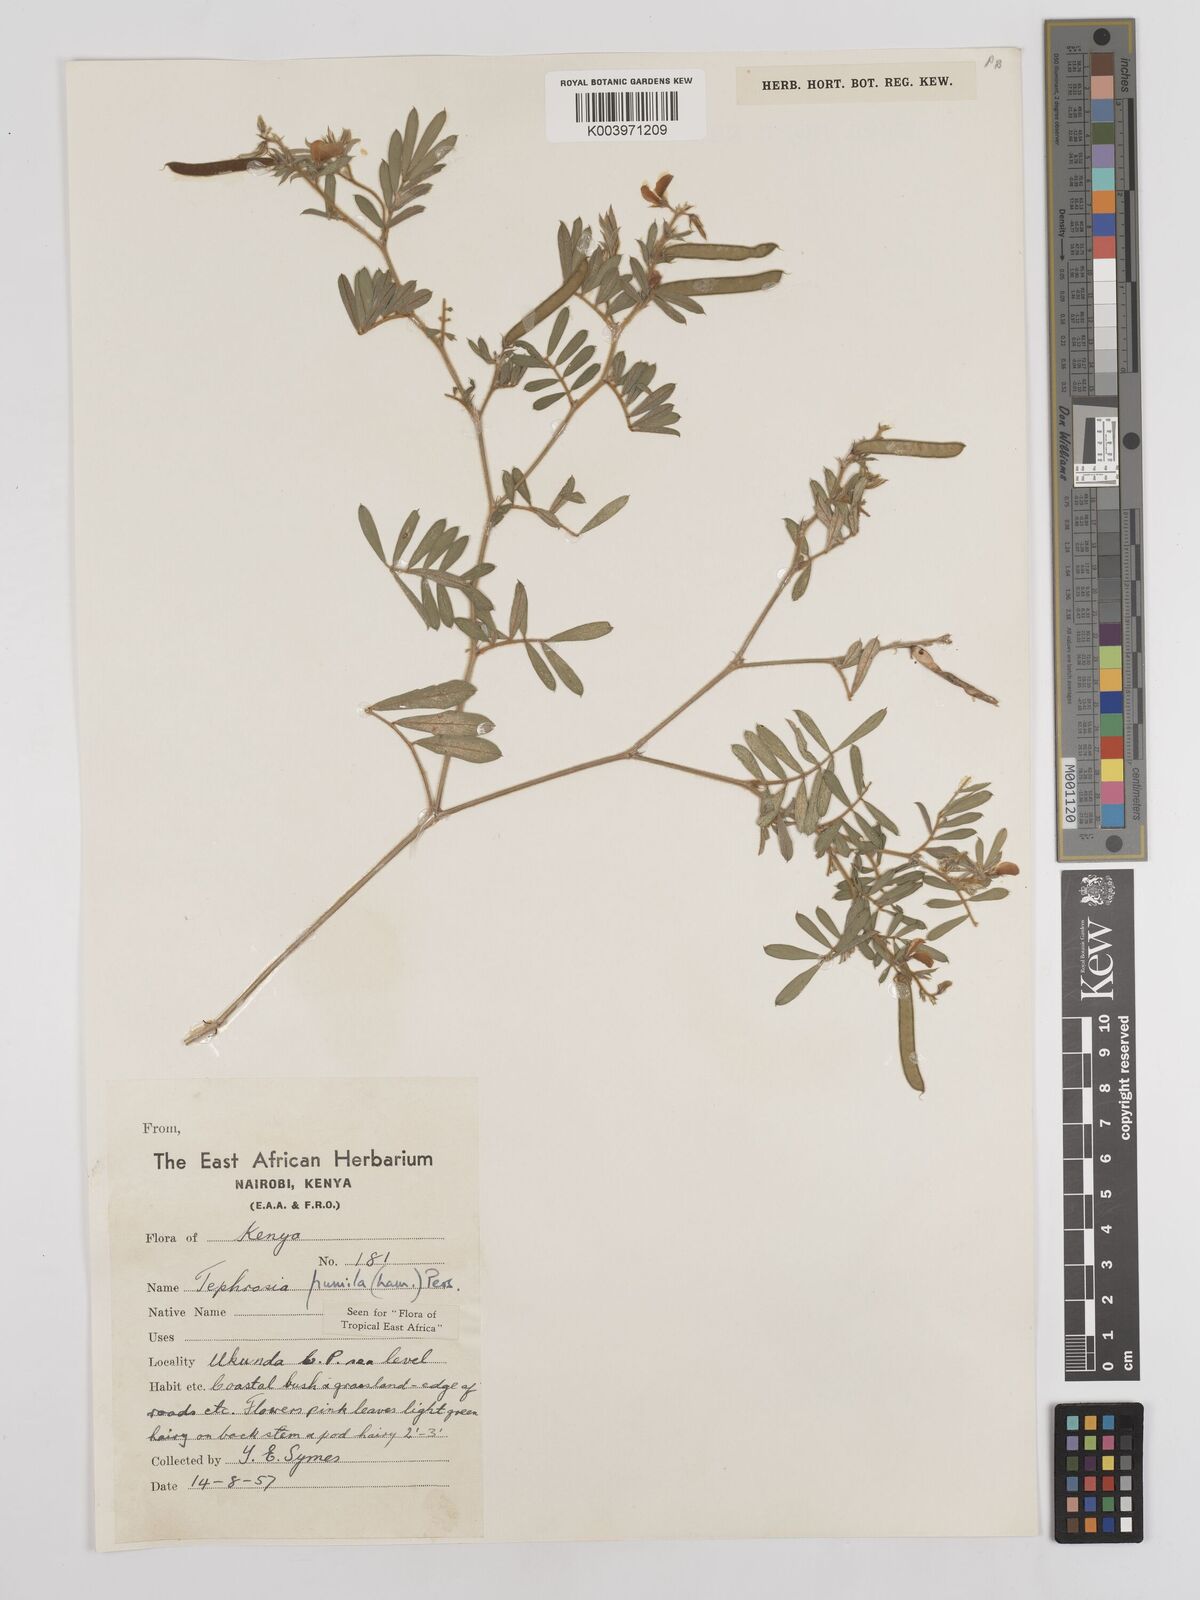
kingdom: Plantae
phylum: Tracheophyta
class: Magnoliopsida
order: Fabales
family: Fabaceae
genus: Tephrosia
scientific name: Tephrosia pumila
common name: Indigo sauvage
